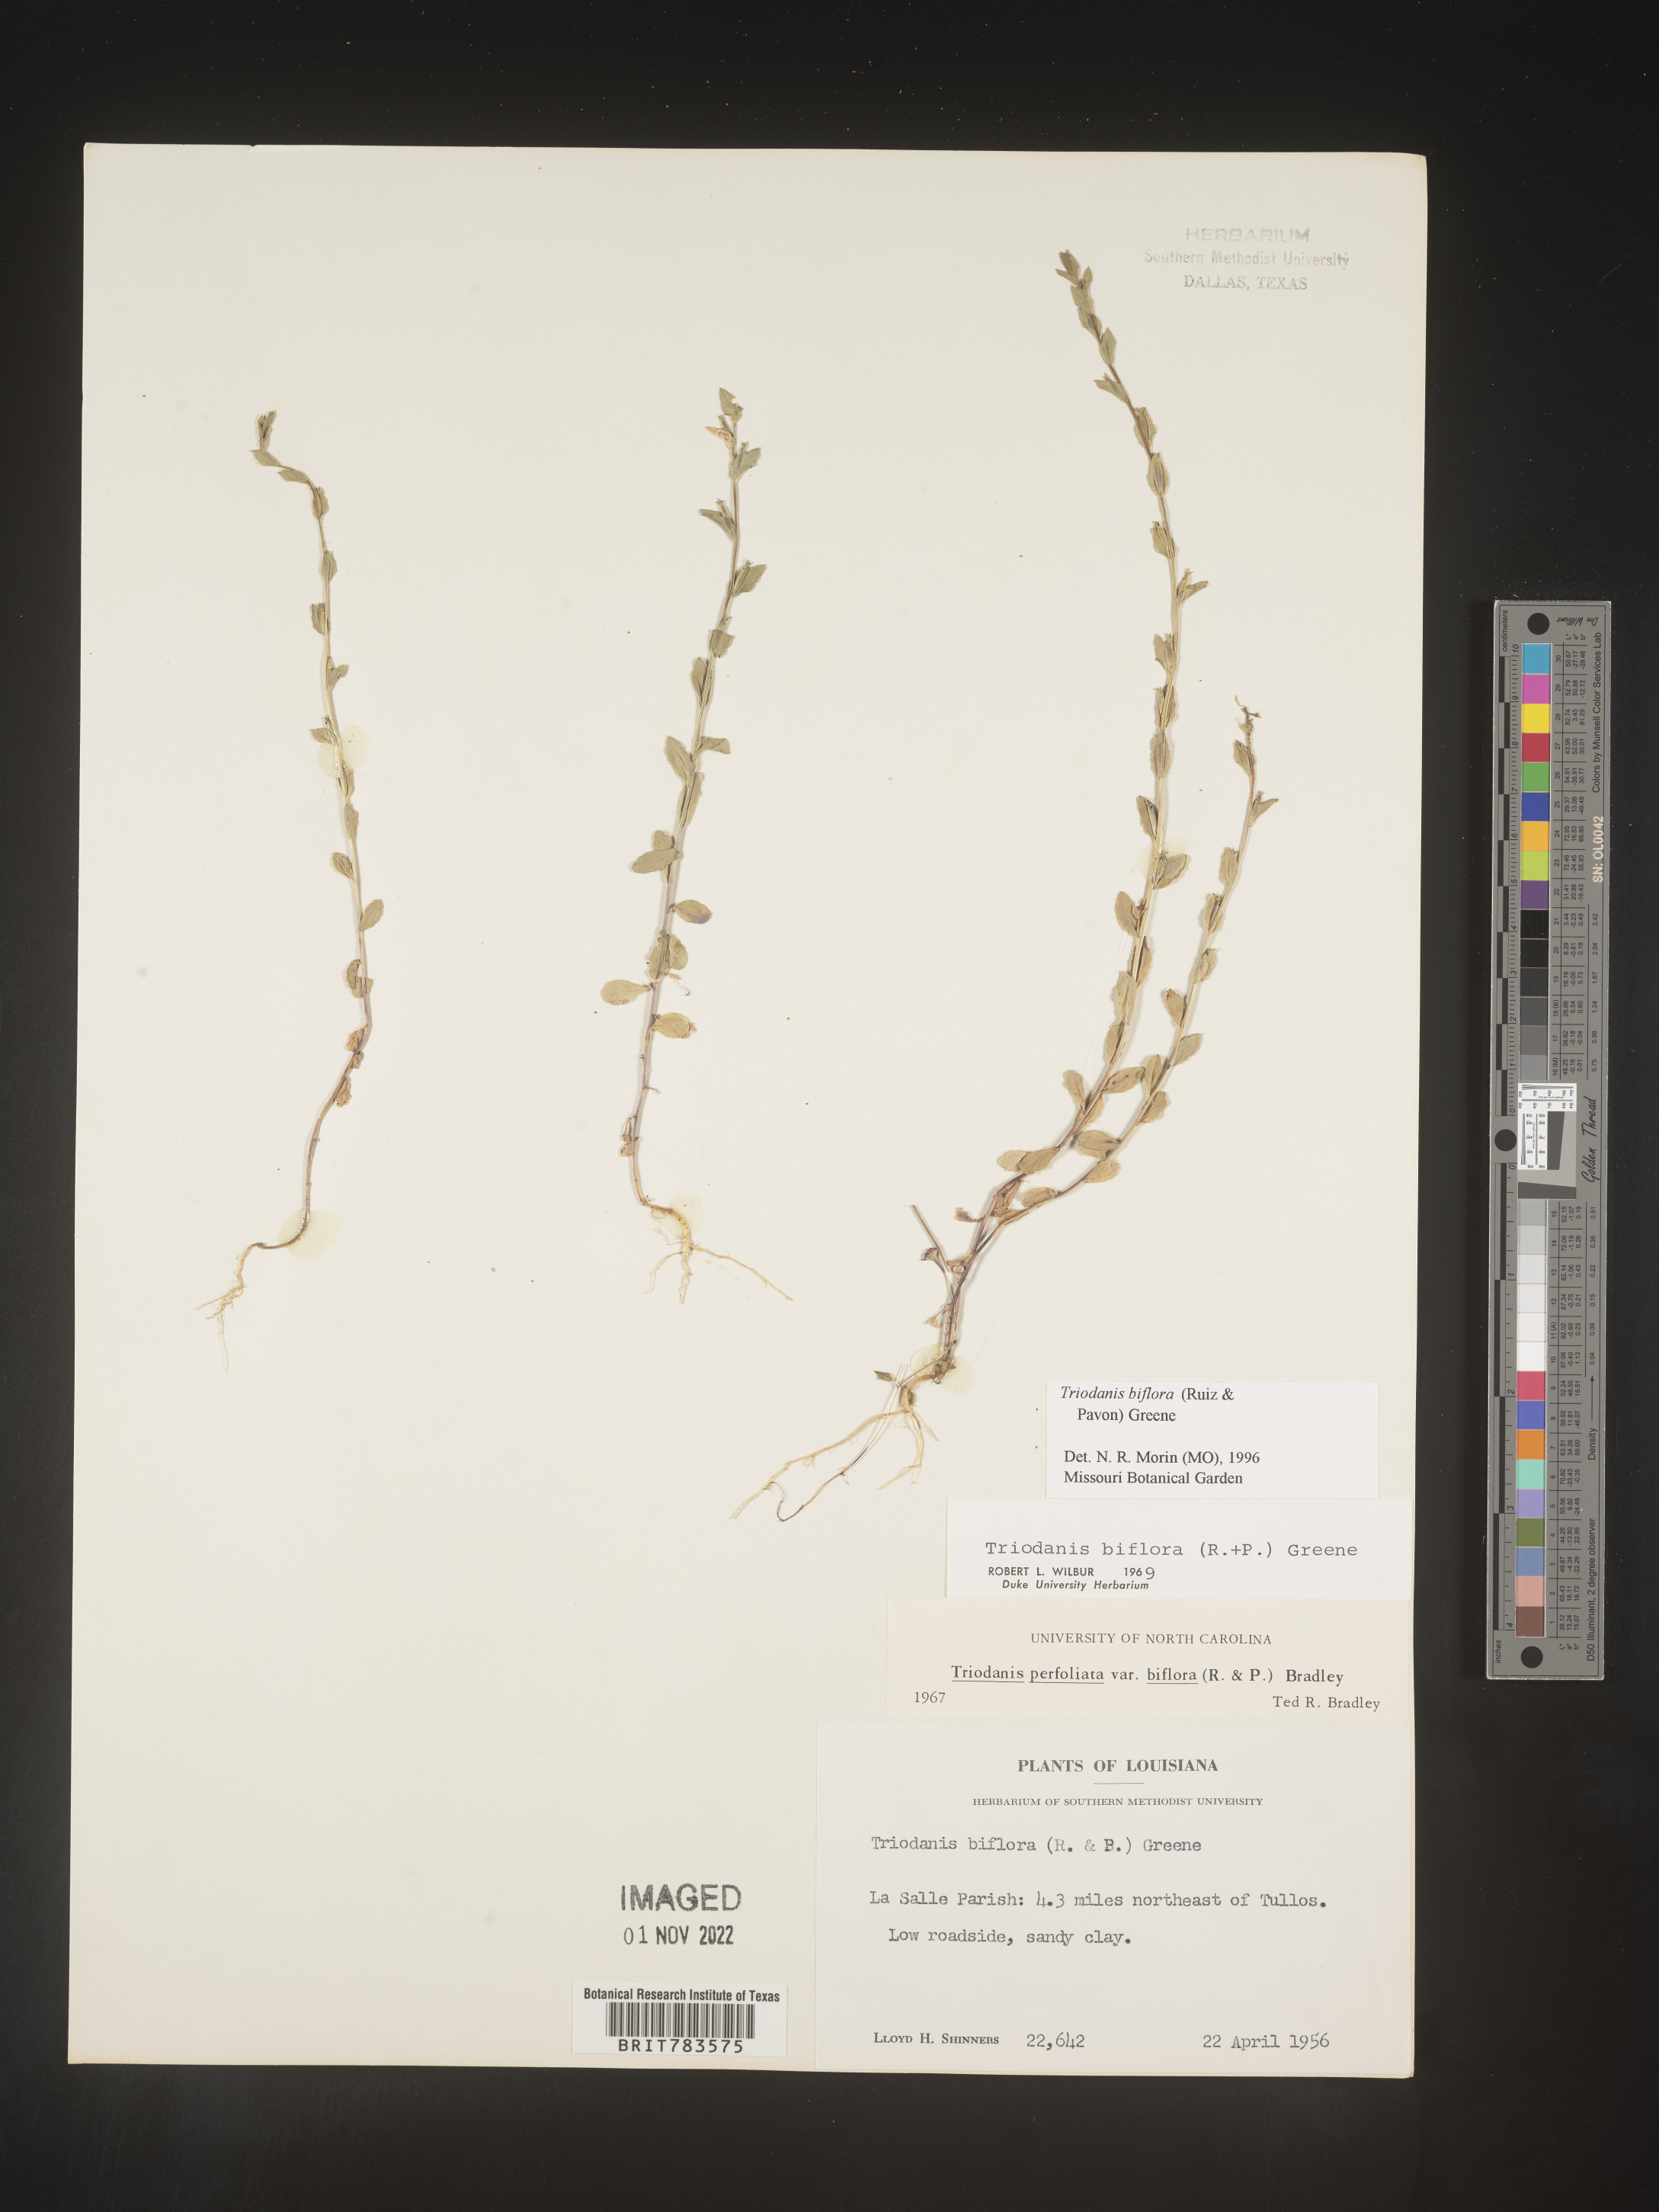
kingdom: Plantae
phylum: Tracheophyta
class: Magnoliopsida
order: Asterales
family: Campanulaceae
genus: Triodanis
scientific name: Triodanis perfoliata
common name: Clasping venus' looking-glass
